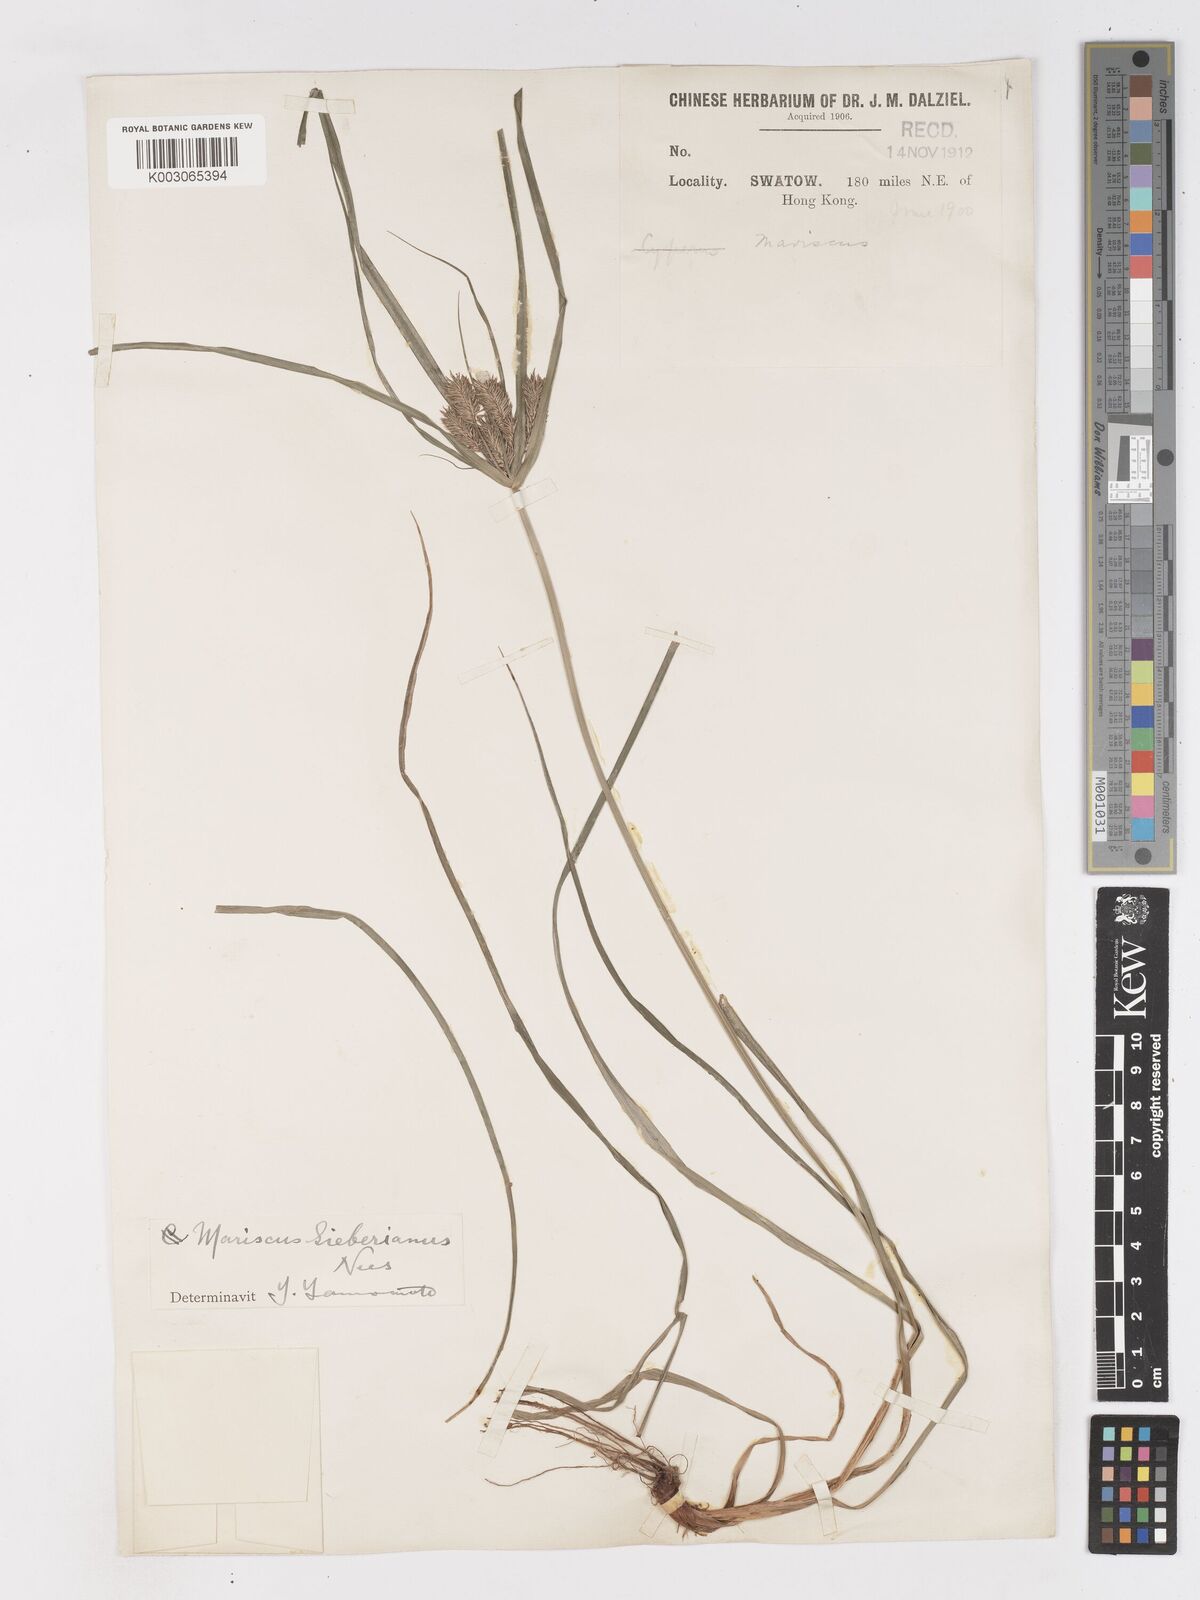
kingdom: Plantae
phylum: Tracheophyta
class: Liliopsida
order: Poales
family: Cyperaceae
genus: Cyperus
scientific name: Cyperus cyperoides
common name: Pacific island flat sedge
